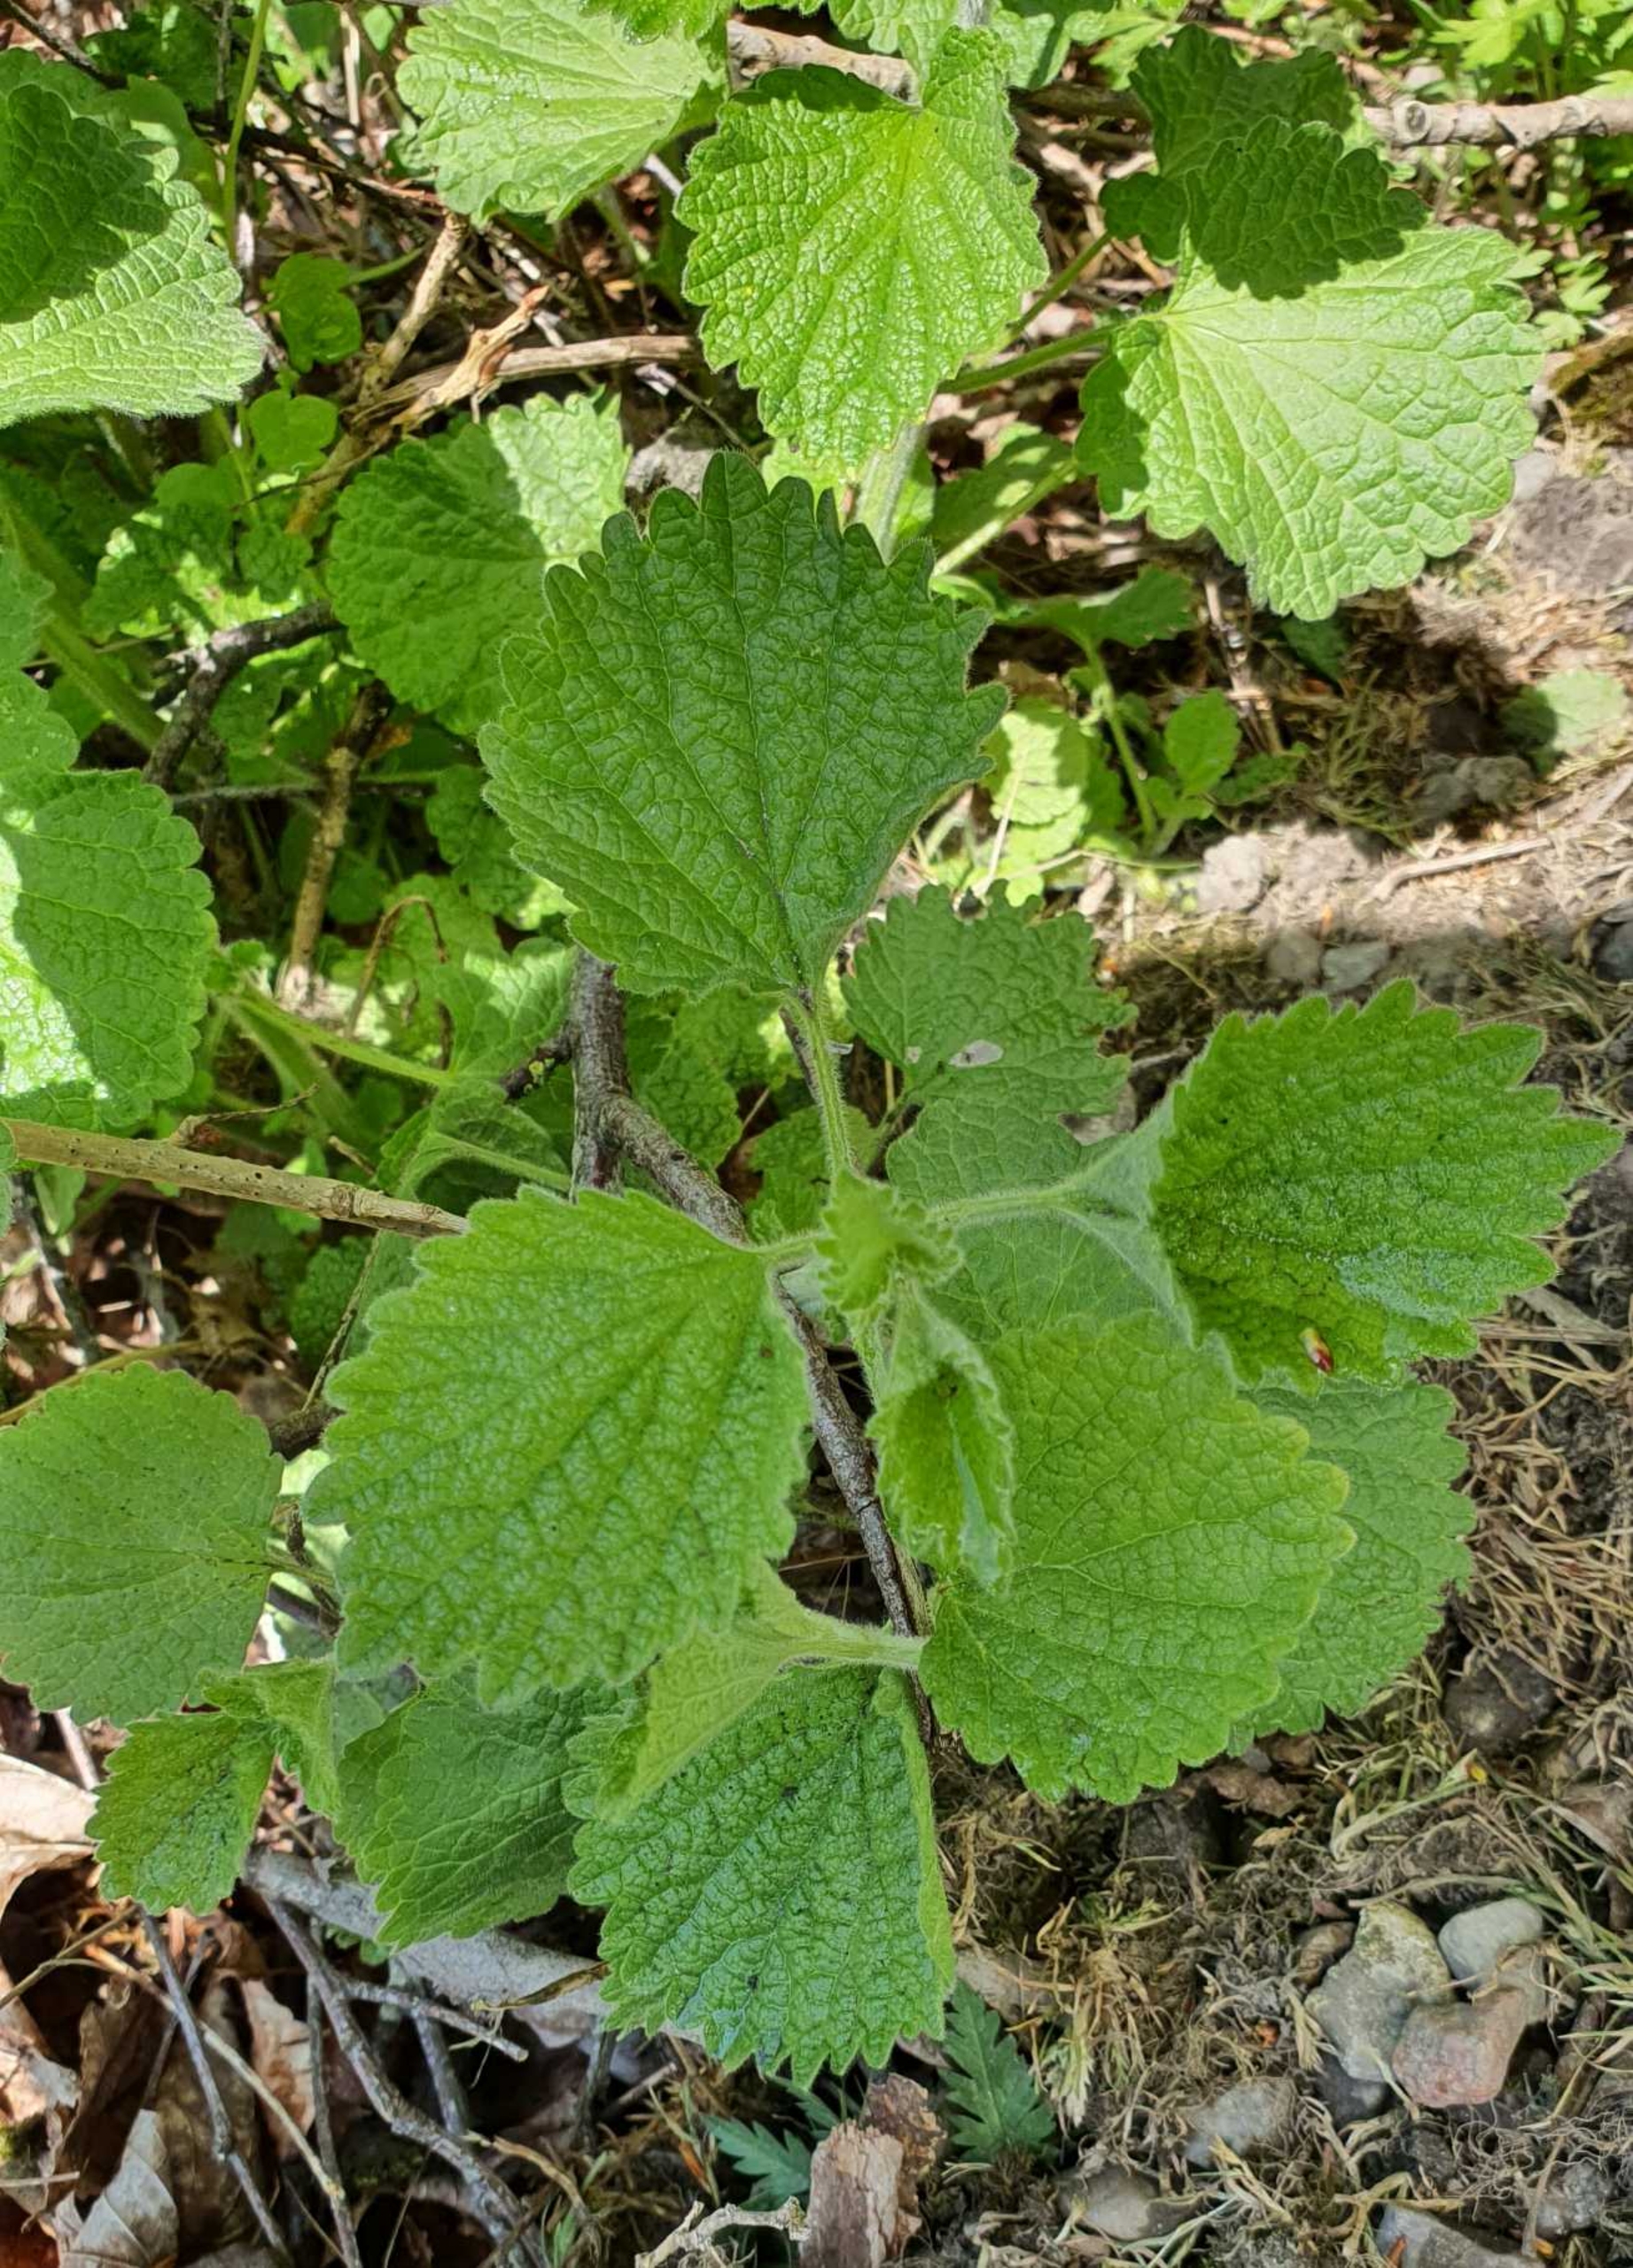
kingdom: Plantae
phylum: Tracheophyta
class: Magnoliopsida
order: Lamiales
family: Lamiaceae
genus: Ballota
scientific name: Ballota nigra
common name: Tandbæger
